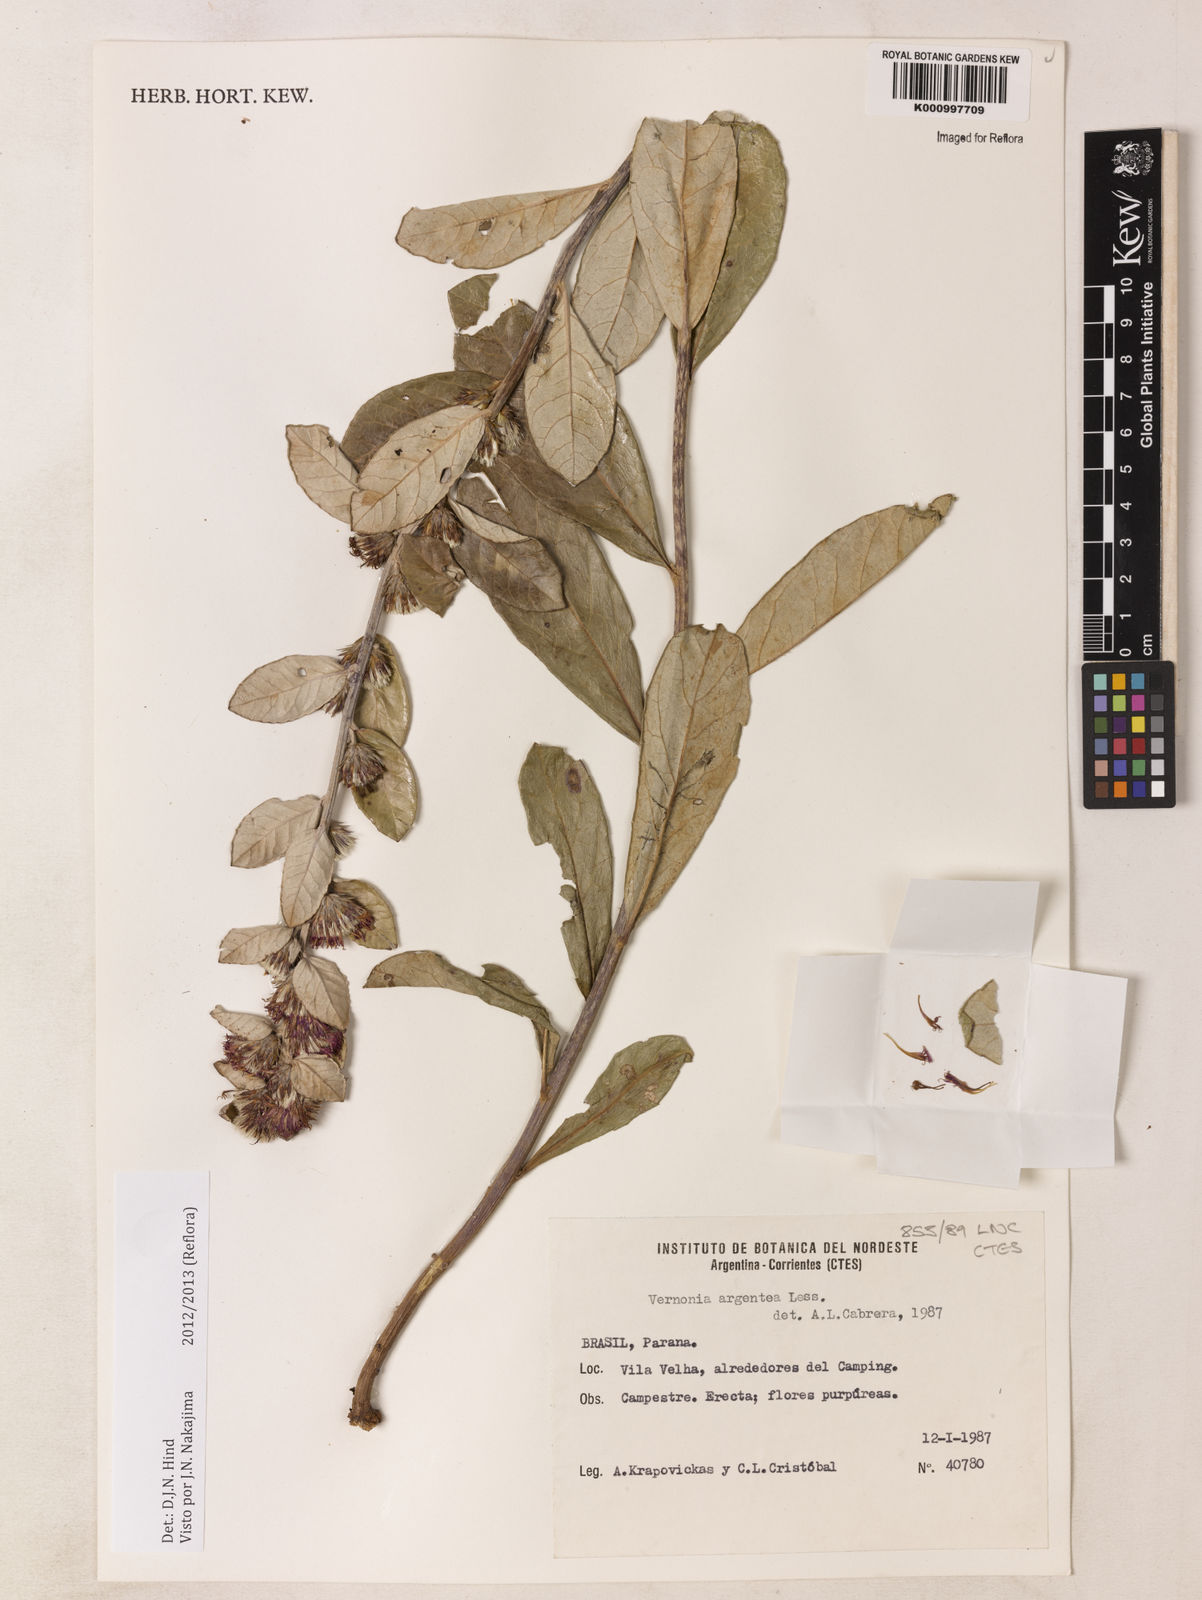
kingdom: Plantae
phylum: Tracheophyta
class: Magnoliopsida
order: Asterales
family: Asteraceae
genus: Lessingianthus
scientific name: Lessingianthus argenteus
